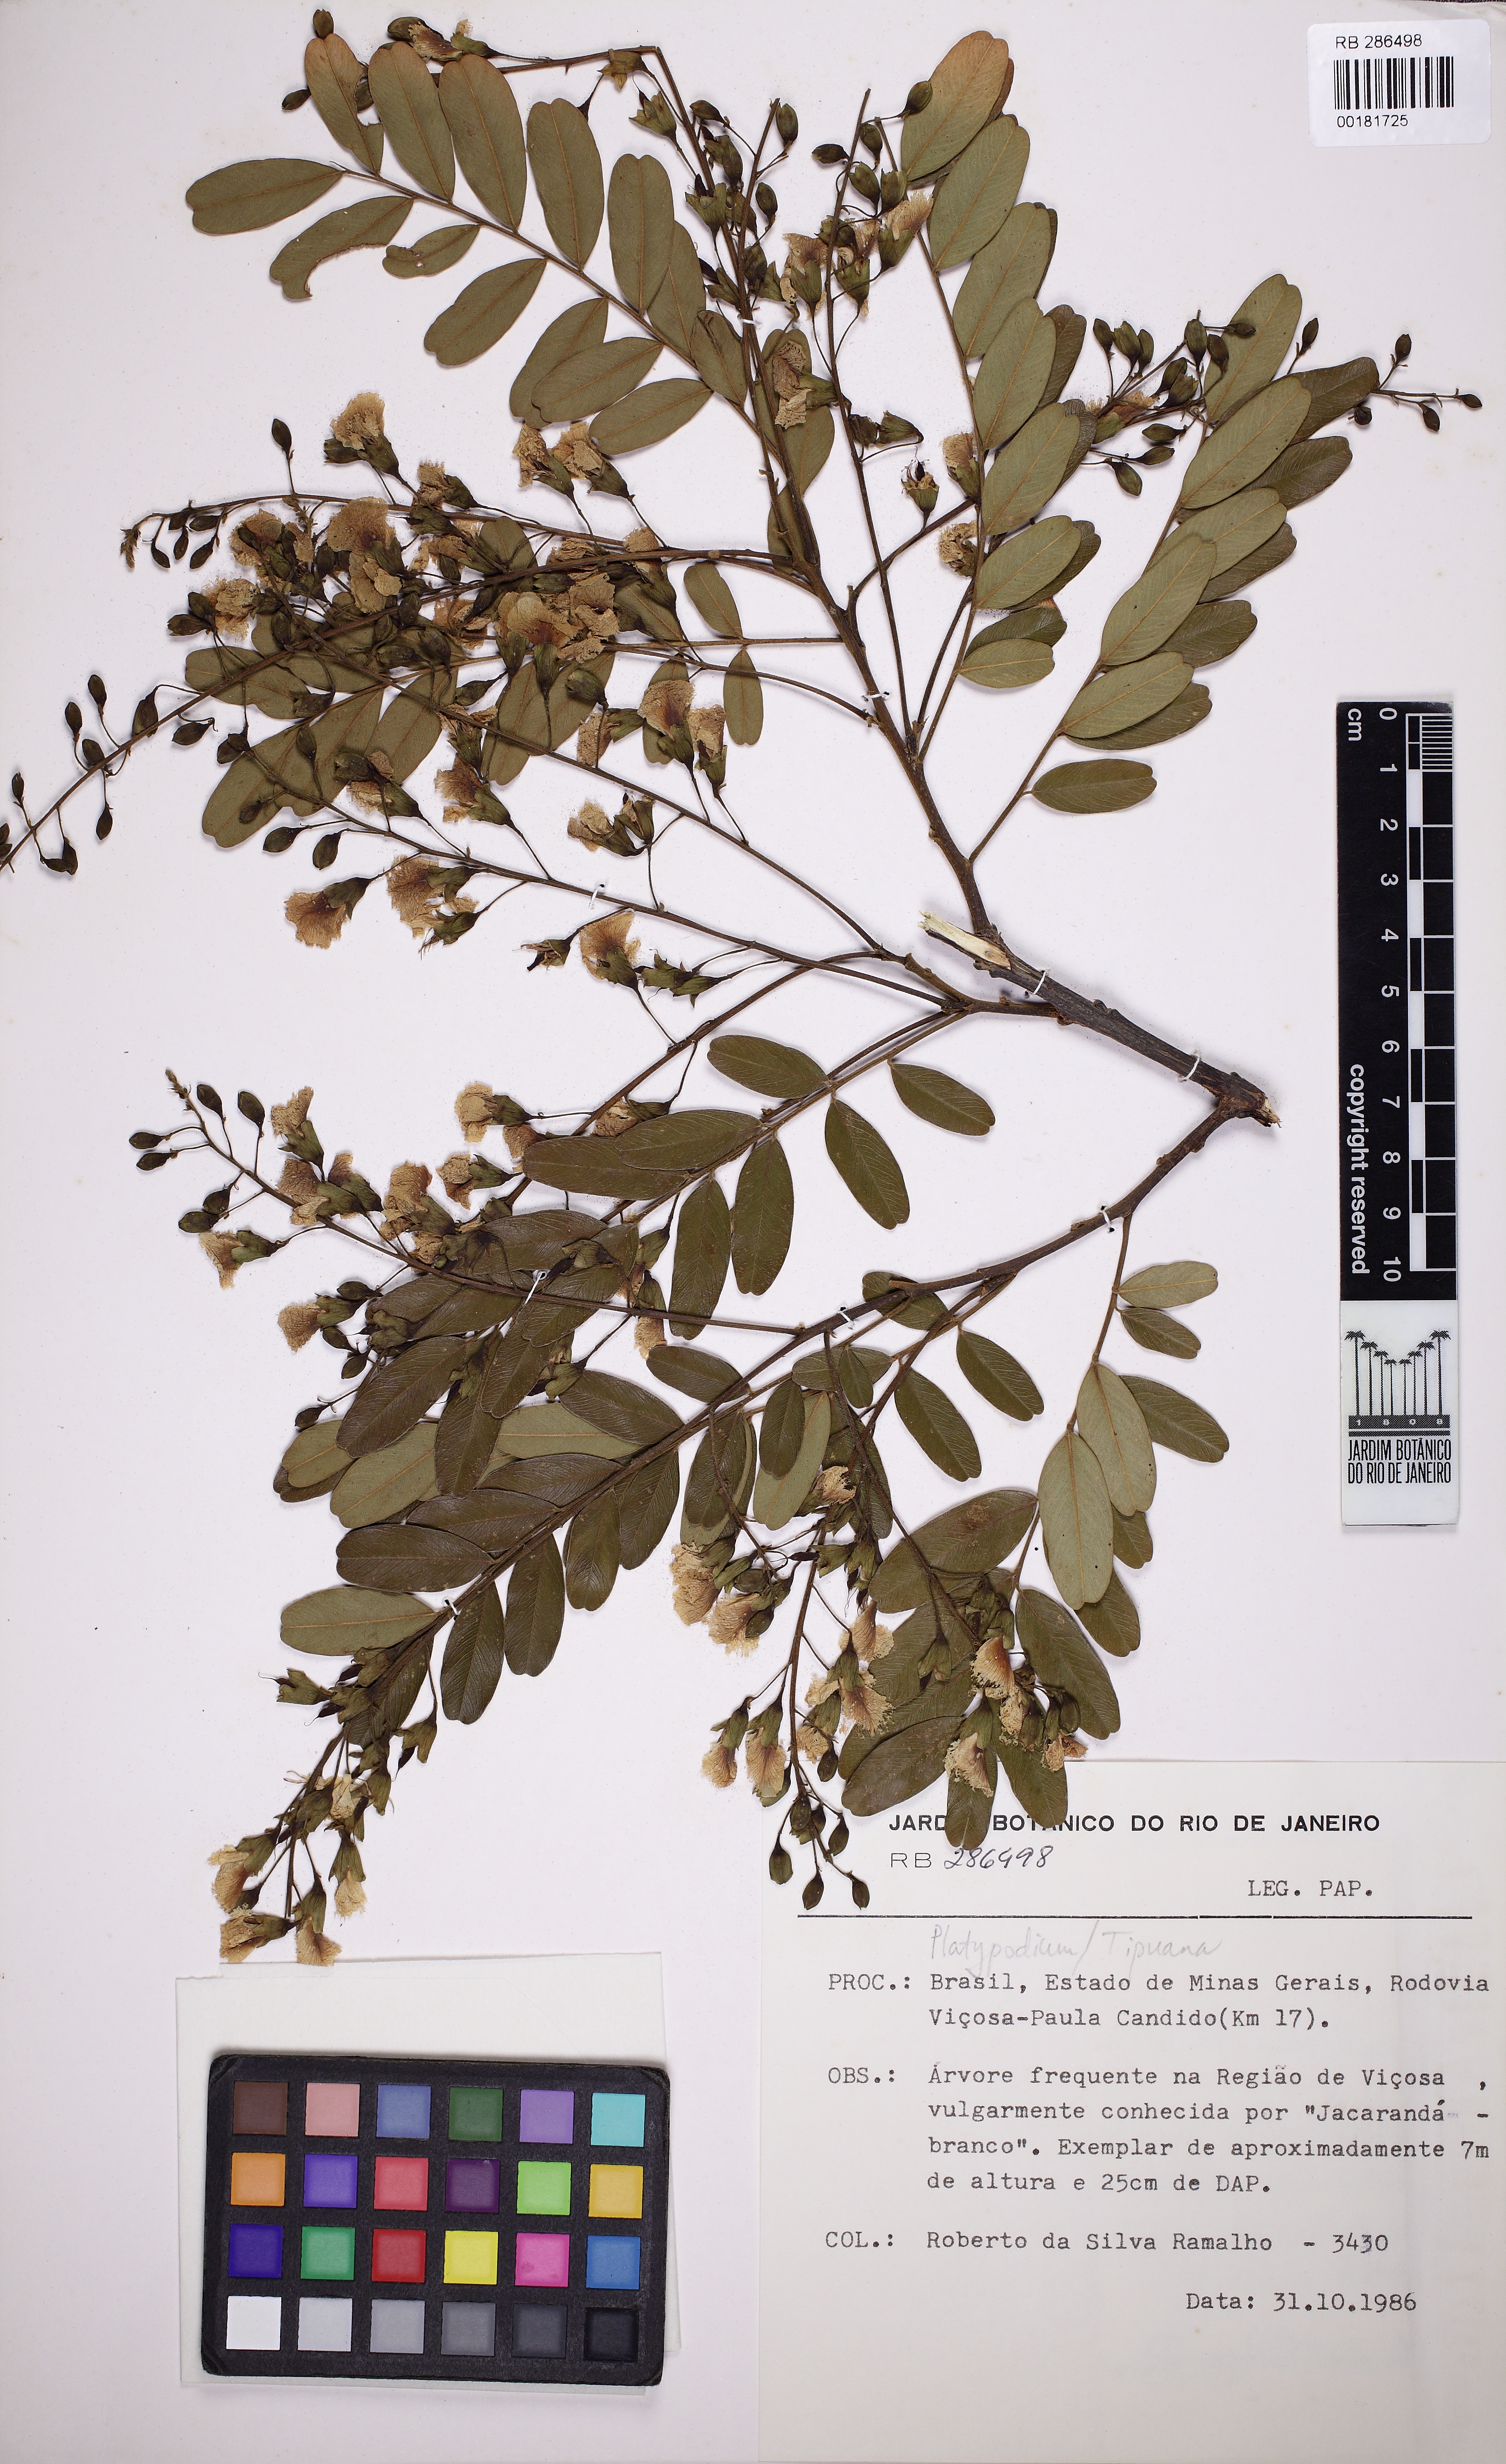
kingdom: Plantae
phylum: Tracheophyta
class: Magnoliopsida
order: Fabales
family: Fabaceae
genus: Platypodium
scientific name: Platypodium elegans
